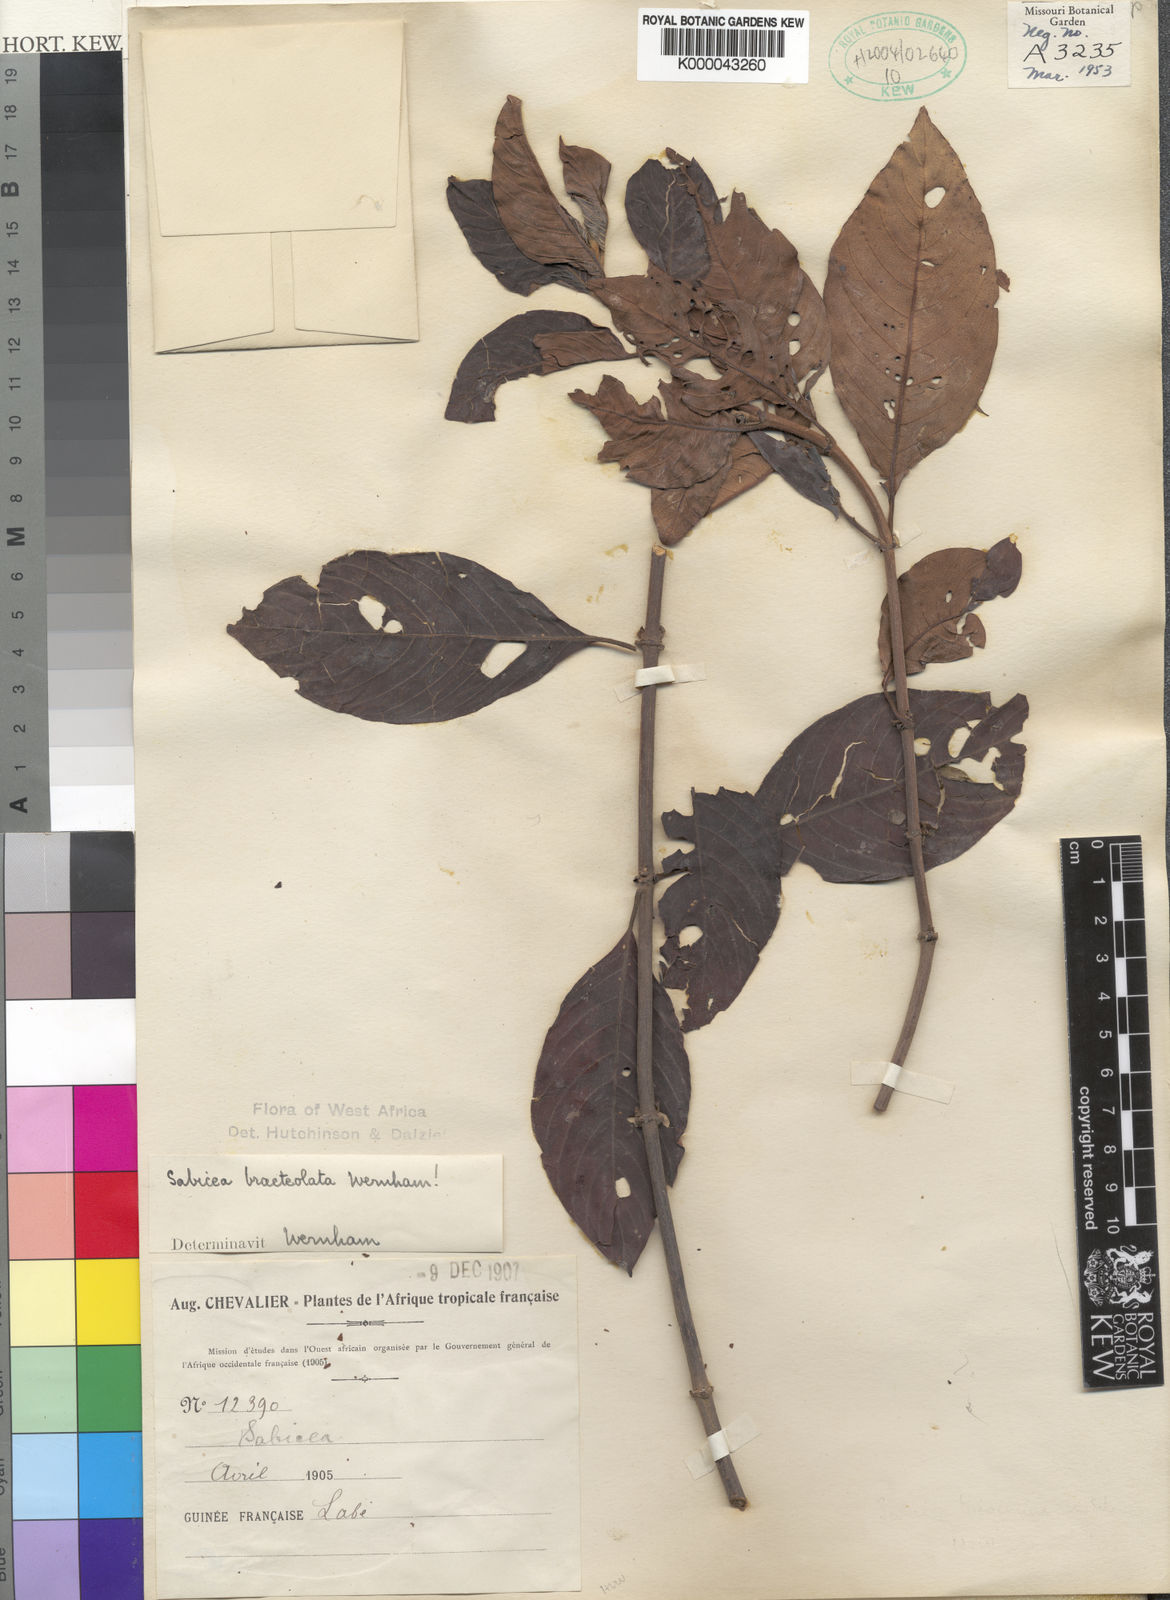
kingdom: Plantae
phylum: Tracheophyta
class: Magnoliopsida
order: Gentianales
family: Rubiaceae
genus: Sabicea
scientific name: Sabicea bracteolata
